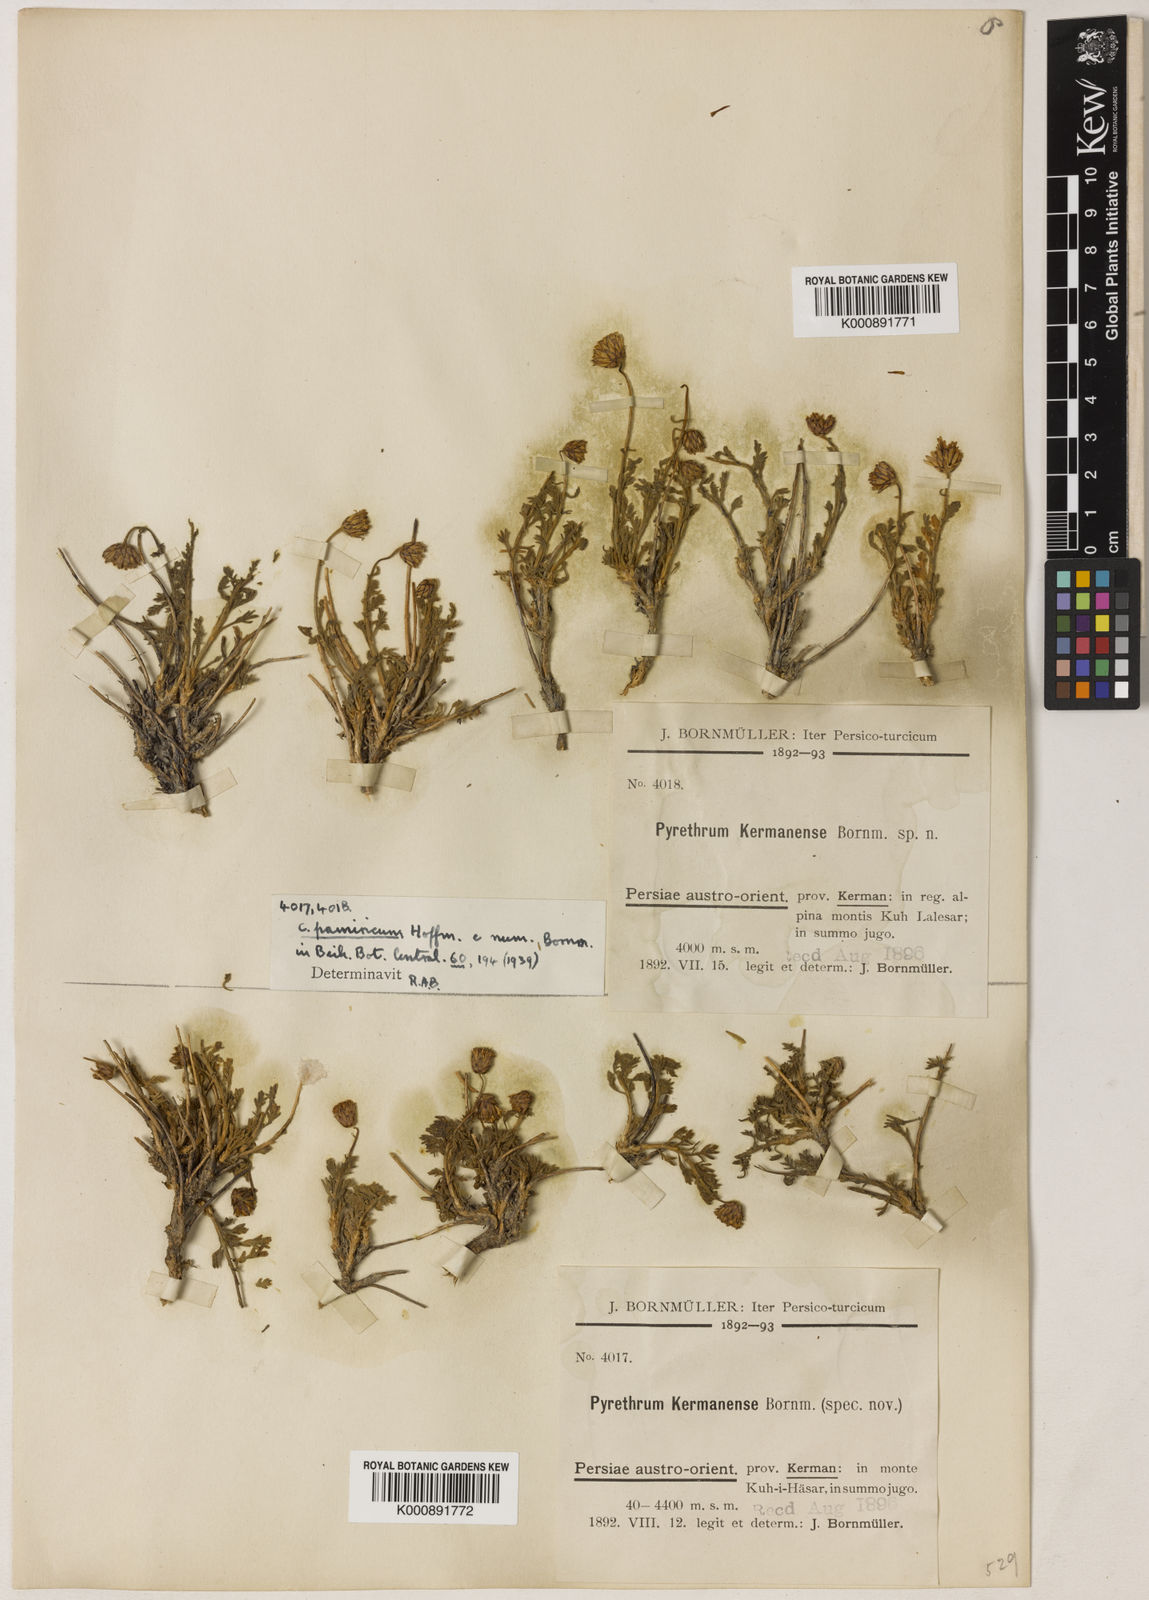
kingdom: Plantae
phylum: Tracheophyta
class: Magnoliopsida
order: Asterales
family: Asteraceae
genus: Xylanthemum
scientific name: Xylanthemum pamiricum
